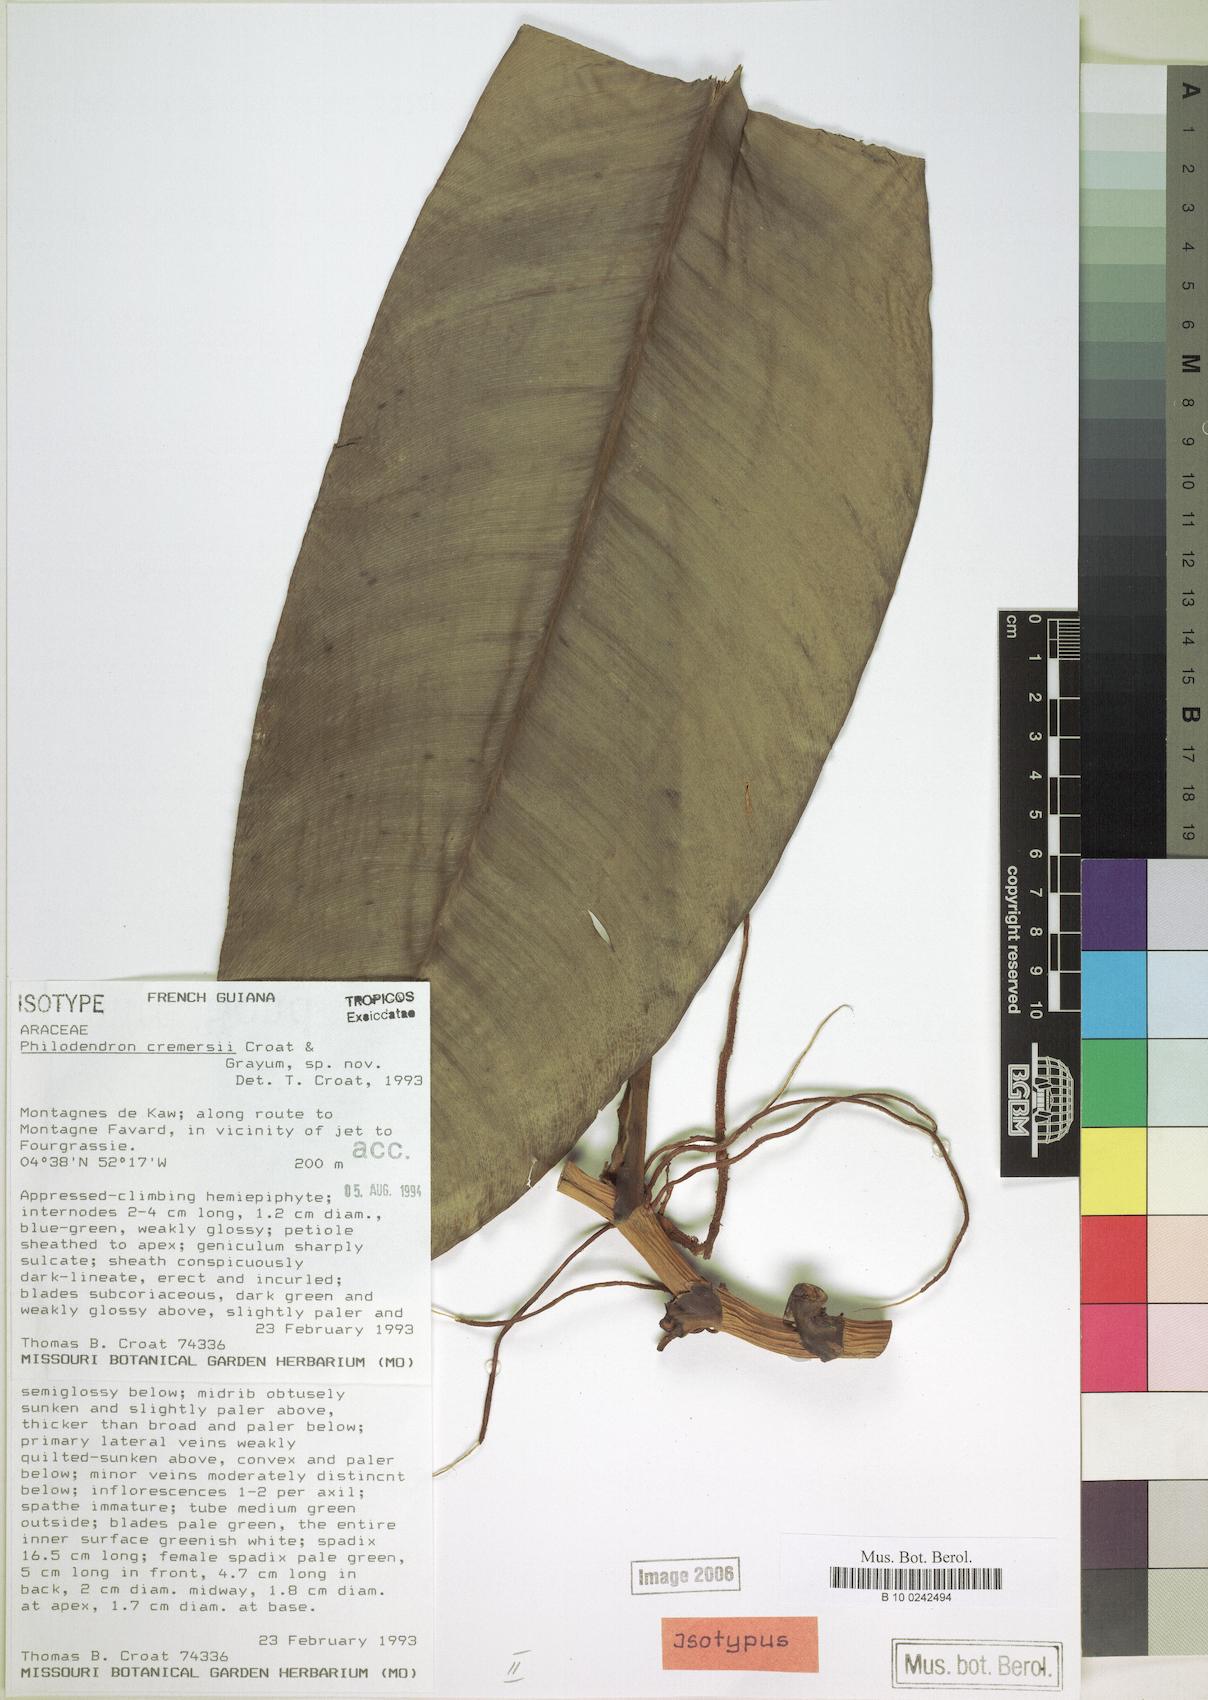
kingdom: Plantae
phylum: Tracheophyta
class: Liliopsida
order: Alismatales
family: Araceae
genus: Philodendron
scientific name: Philodendron cremersii
